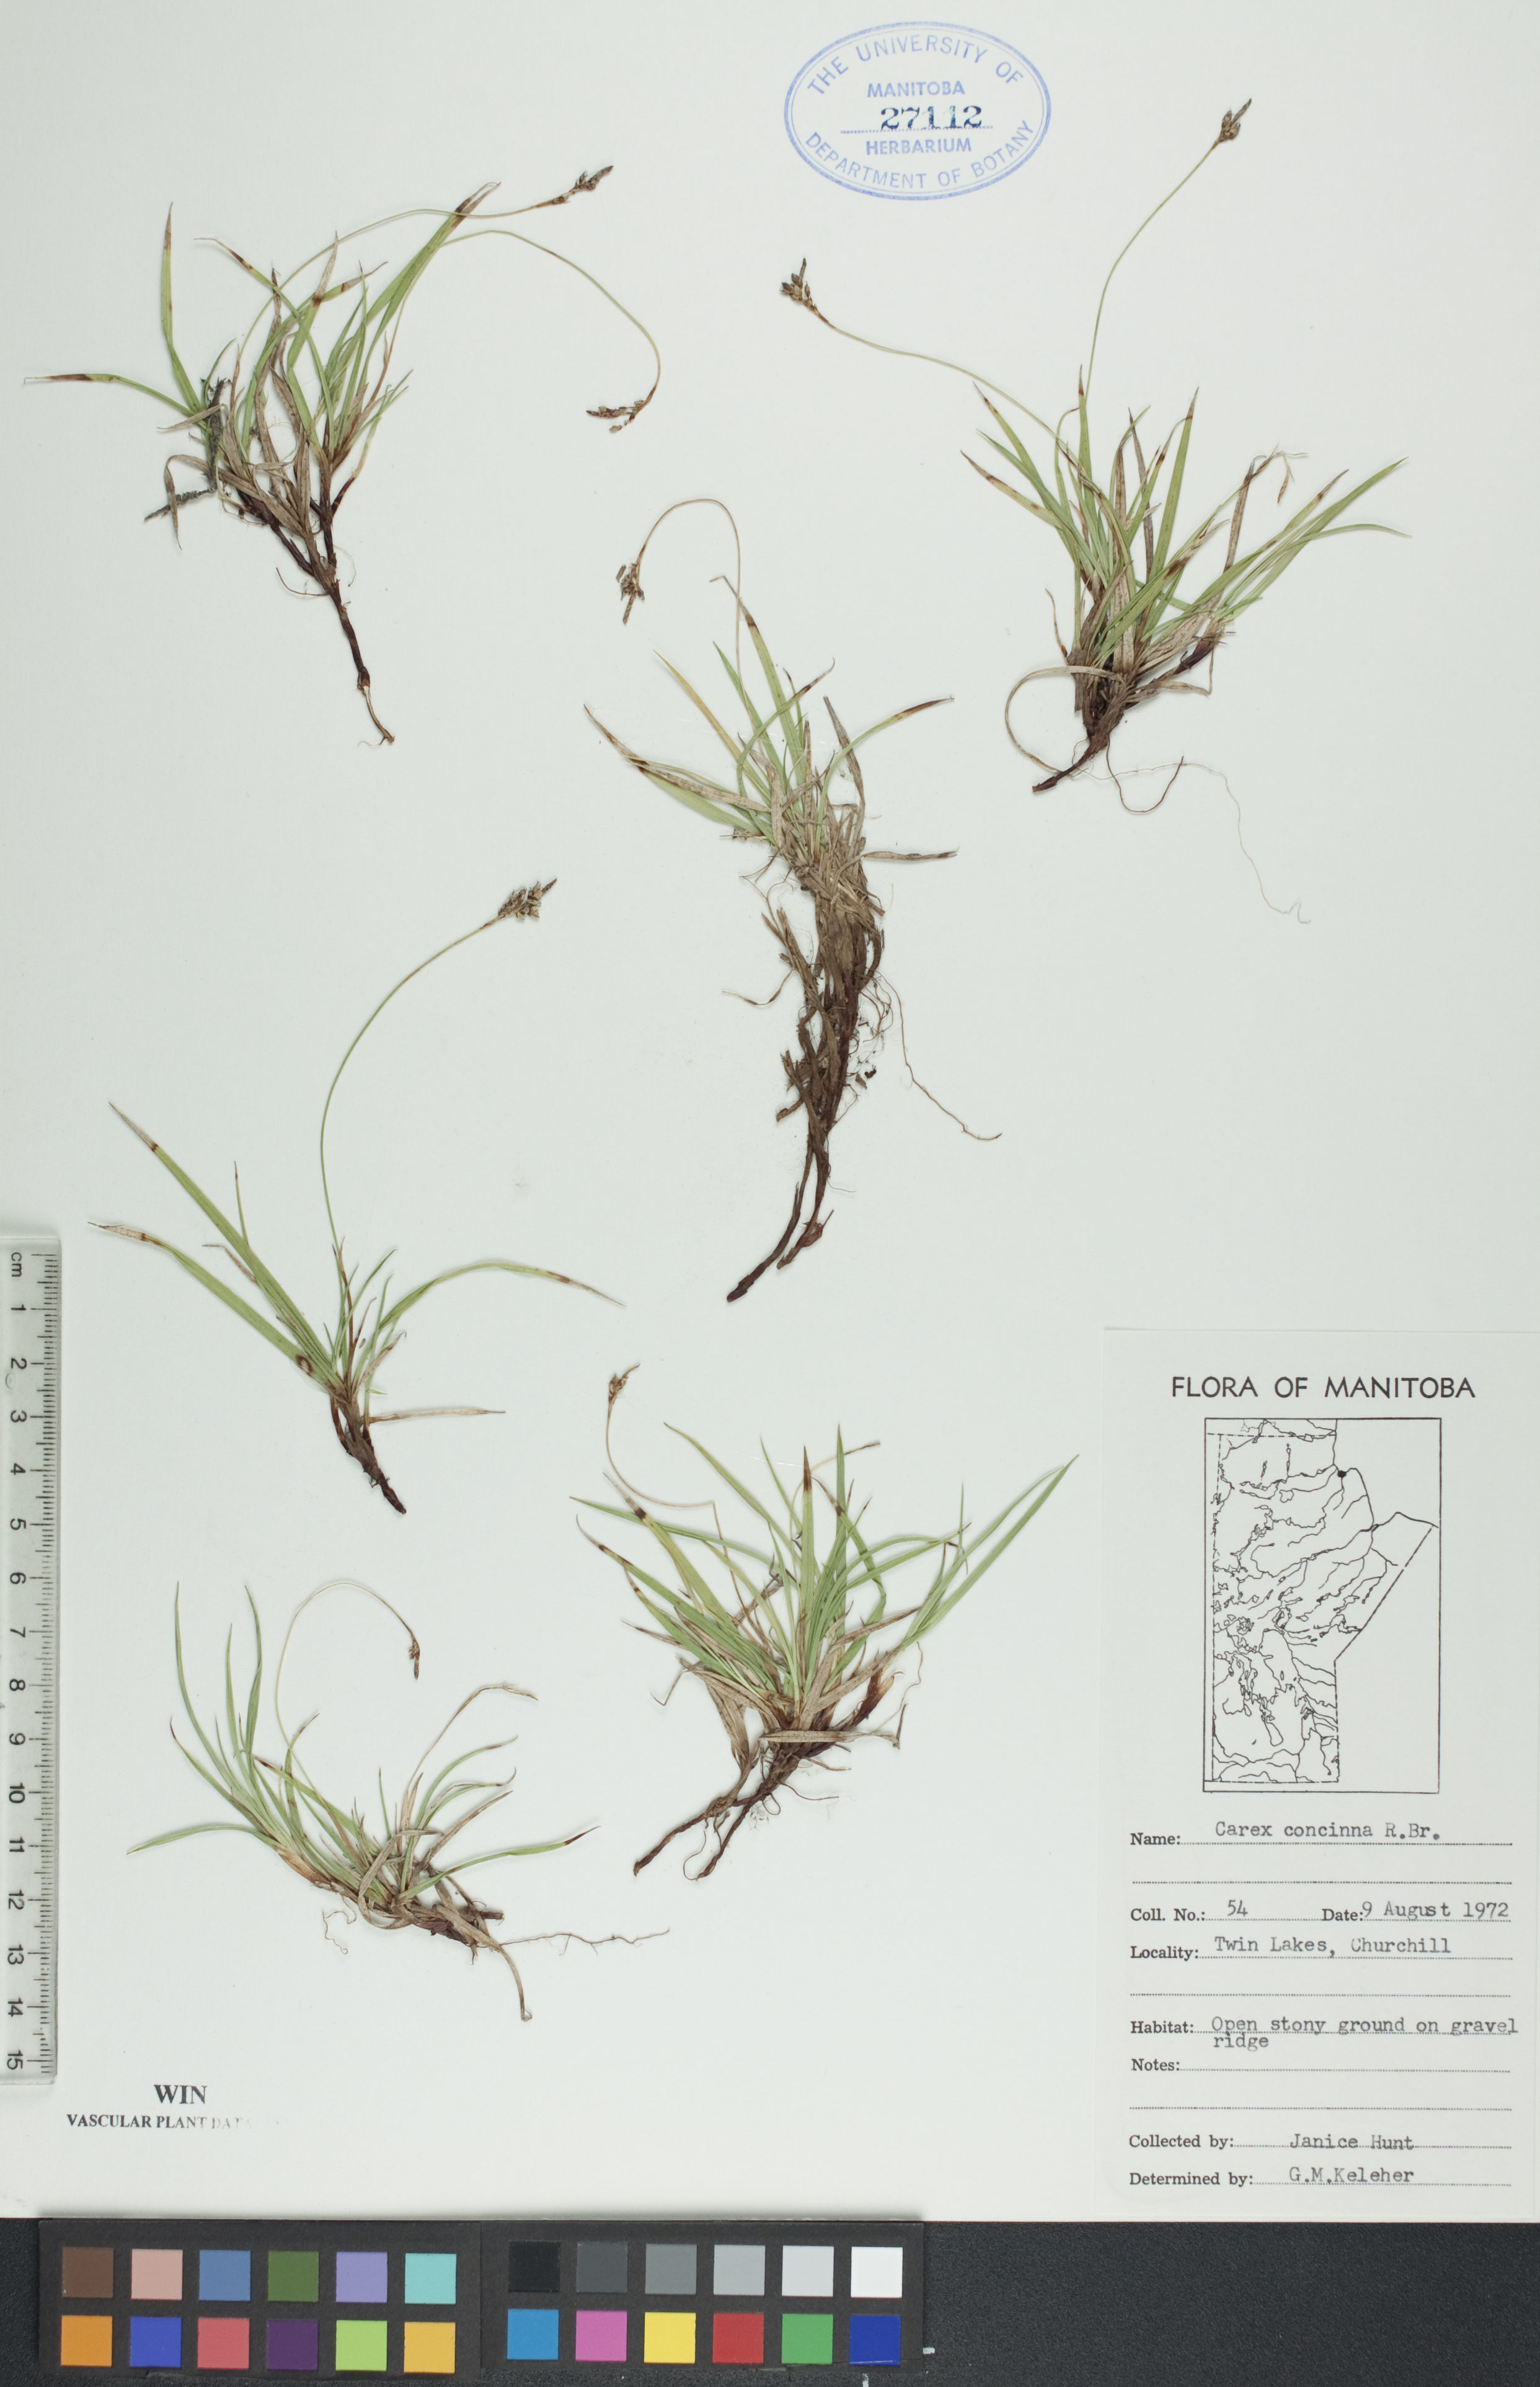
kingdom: Plantae
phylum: Tracheophyta
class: Liliopsida
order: Poales
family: Cyperaceae
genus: Carex
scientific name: Carex concinna
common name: Beautiful sedge
